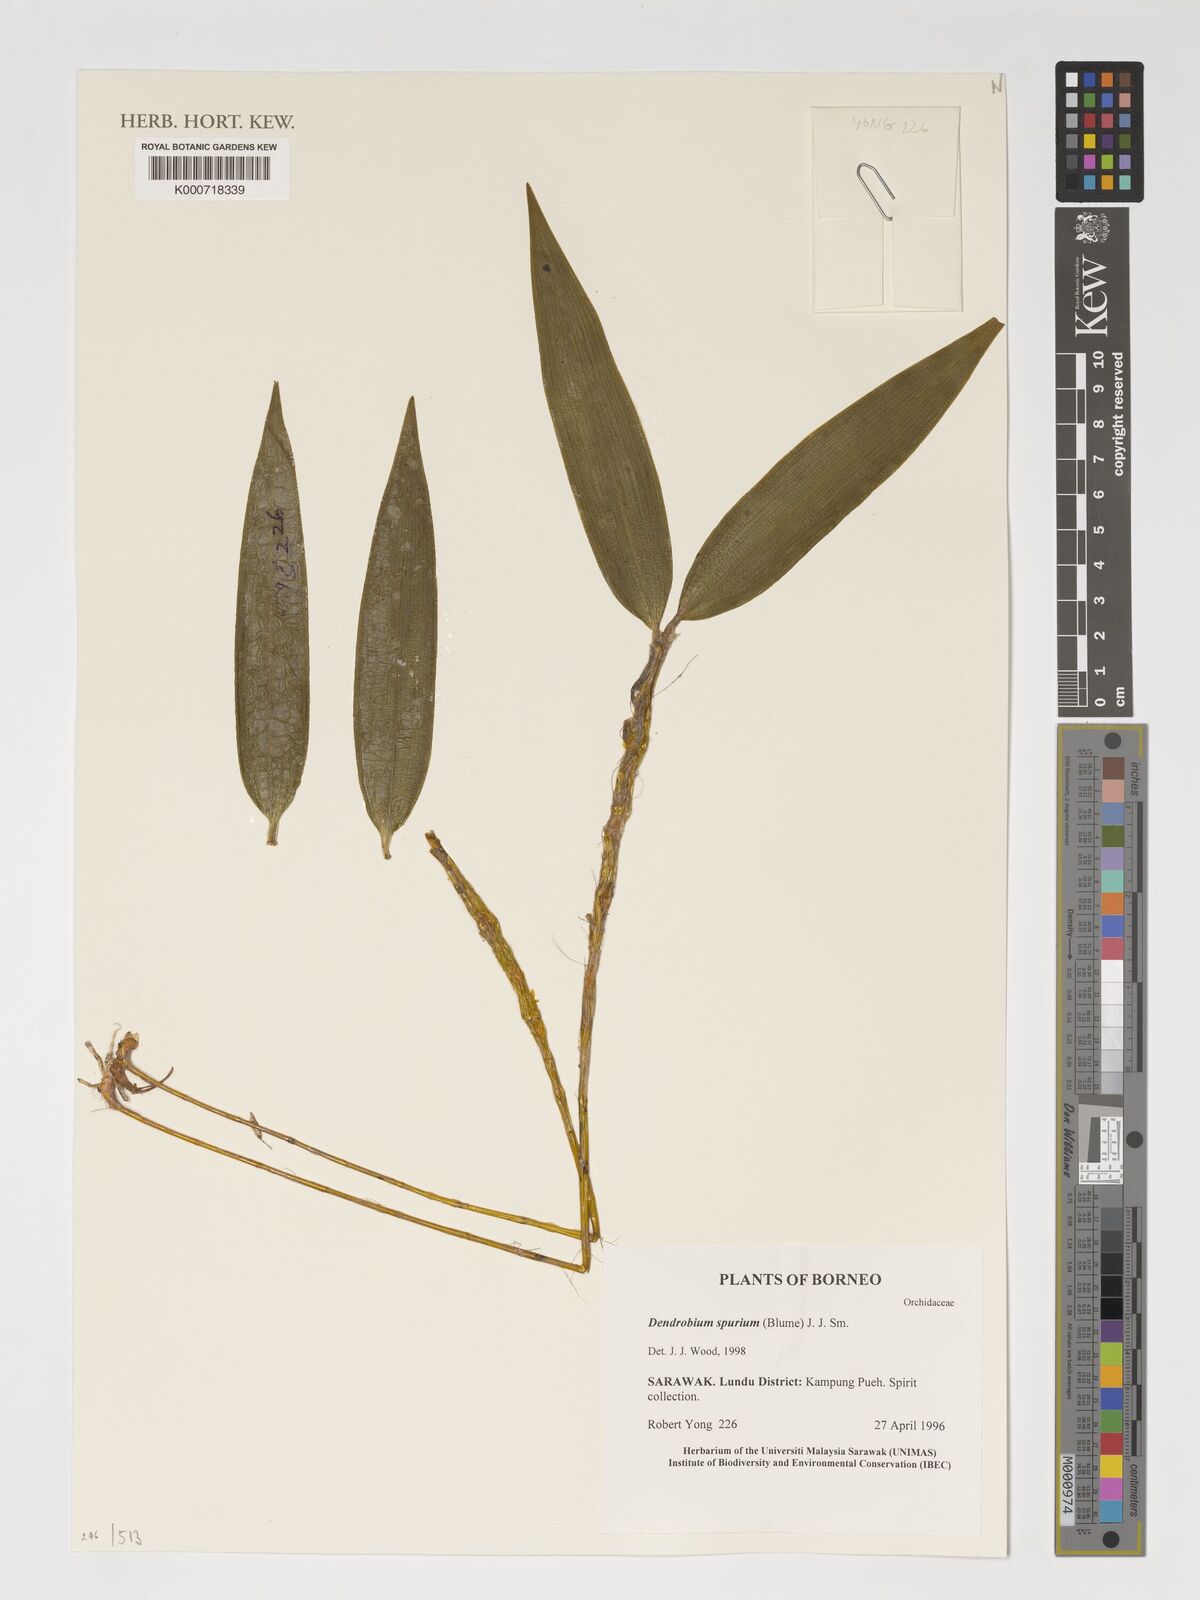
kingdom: Plantae
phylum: Tracheophyta
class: Liliopsida
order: Asparagales
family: Orchidaceae
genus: Dendrobium
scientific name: Dendrobium spurium
